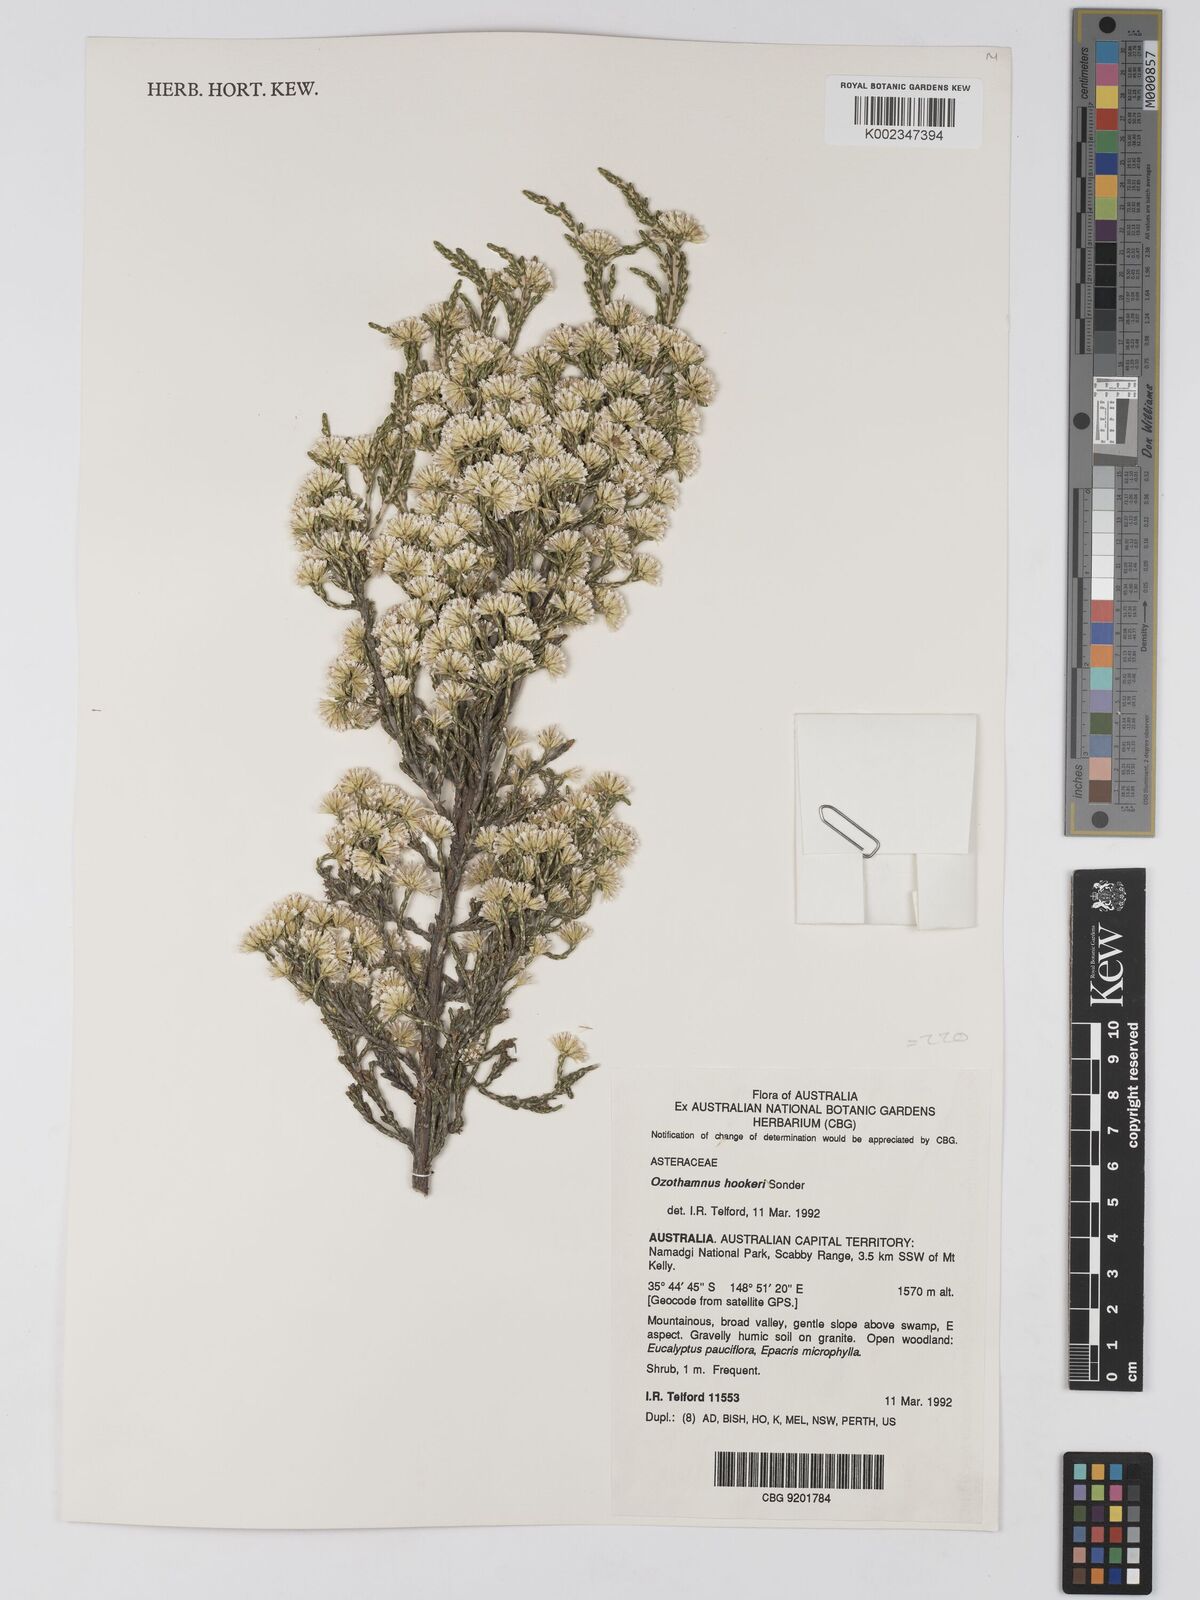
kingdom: Plantae
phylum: Tracheophyta
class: Magnoliopsida
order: Asterales
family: Asteraceae
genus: Ozothamnus
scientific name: Ozothamnus hookeri
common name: Kerosene-bush
